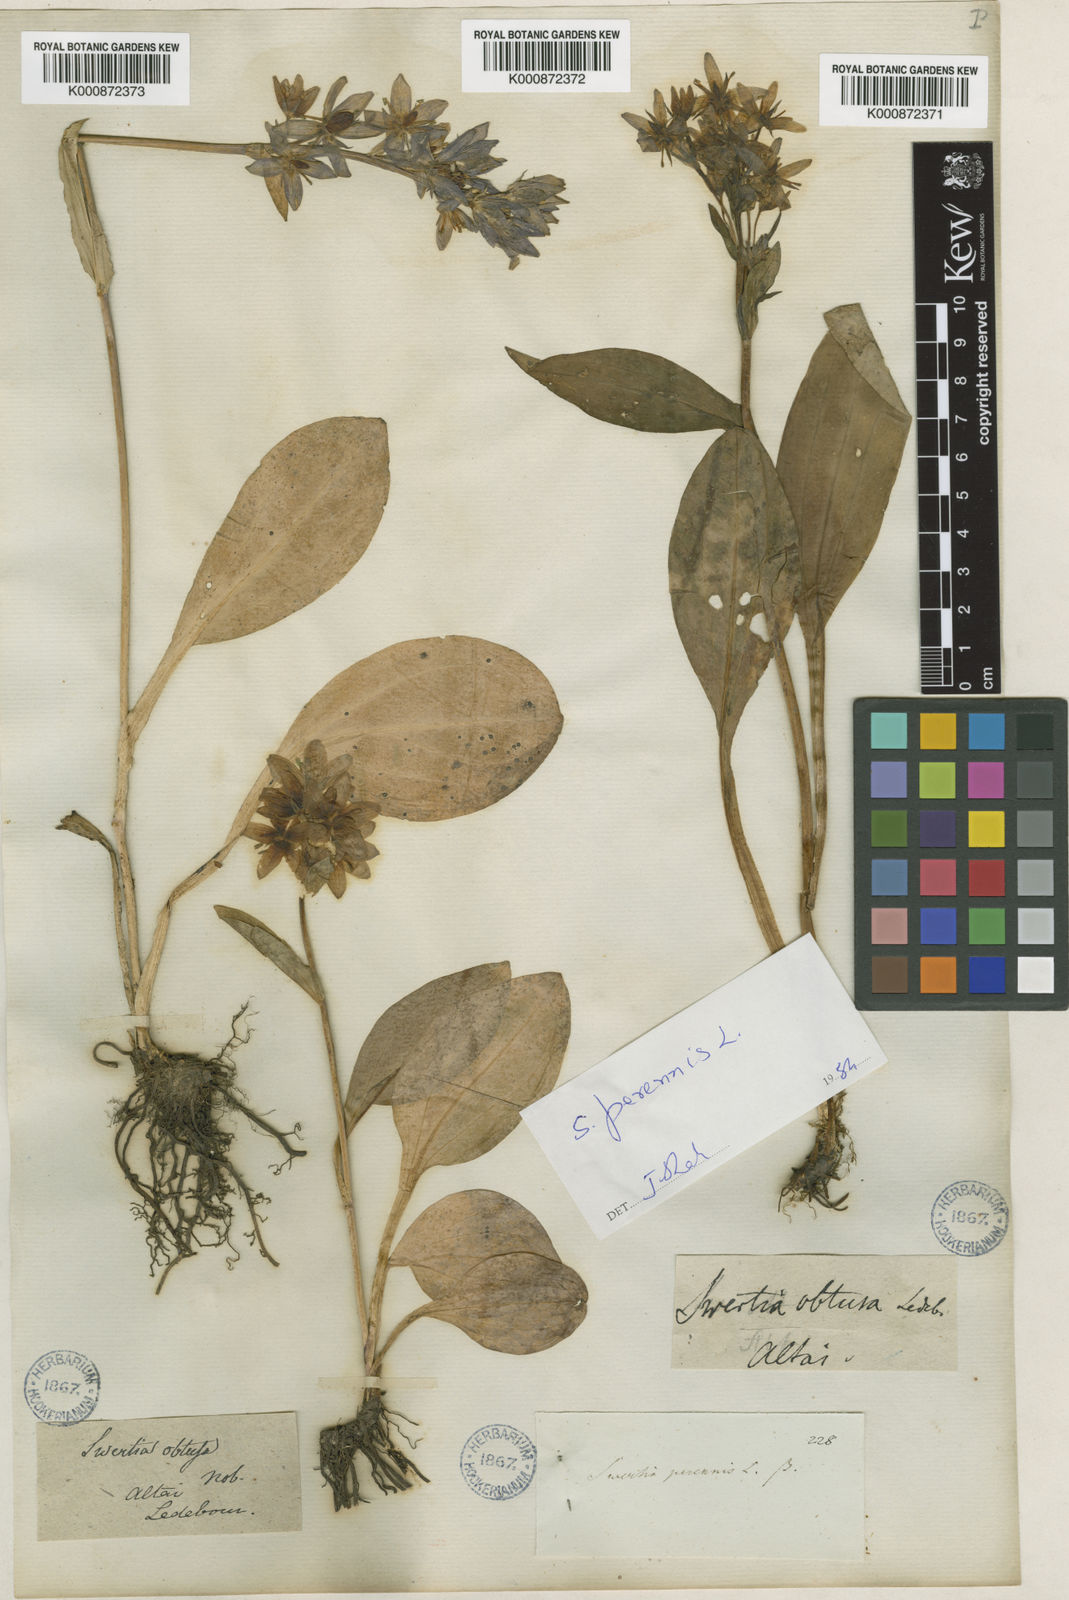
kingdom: Plantae
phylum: Tracheophyta
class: Magnoliopsida
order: Gentianales
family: Gentianaceae
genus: Swertia
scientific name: Swertia obtusa
